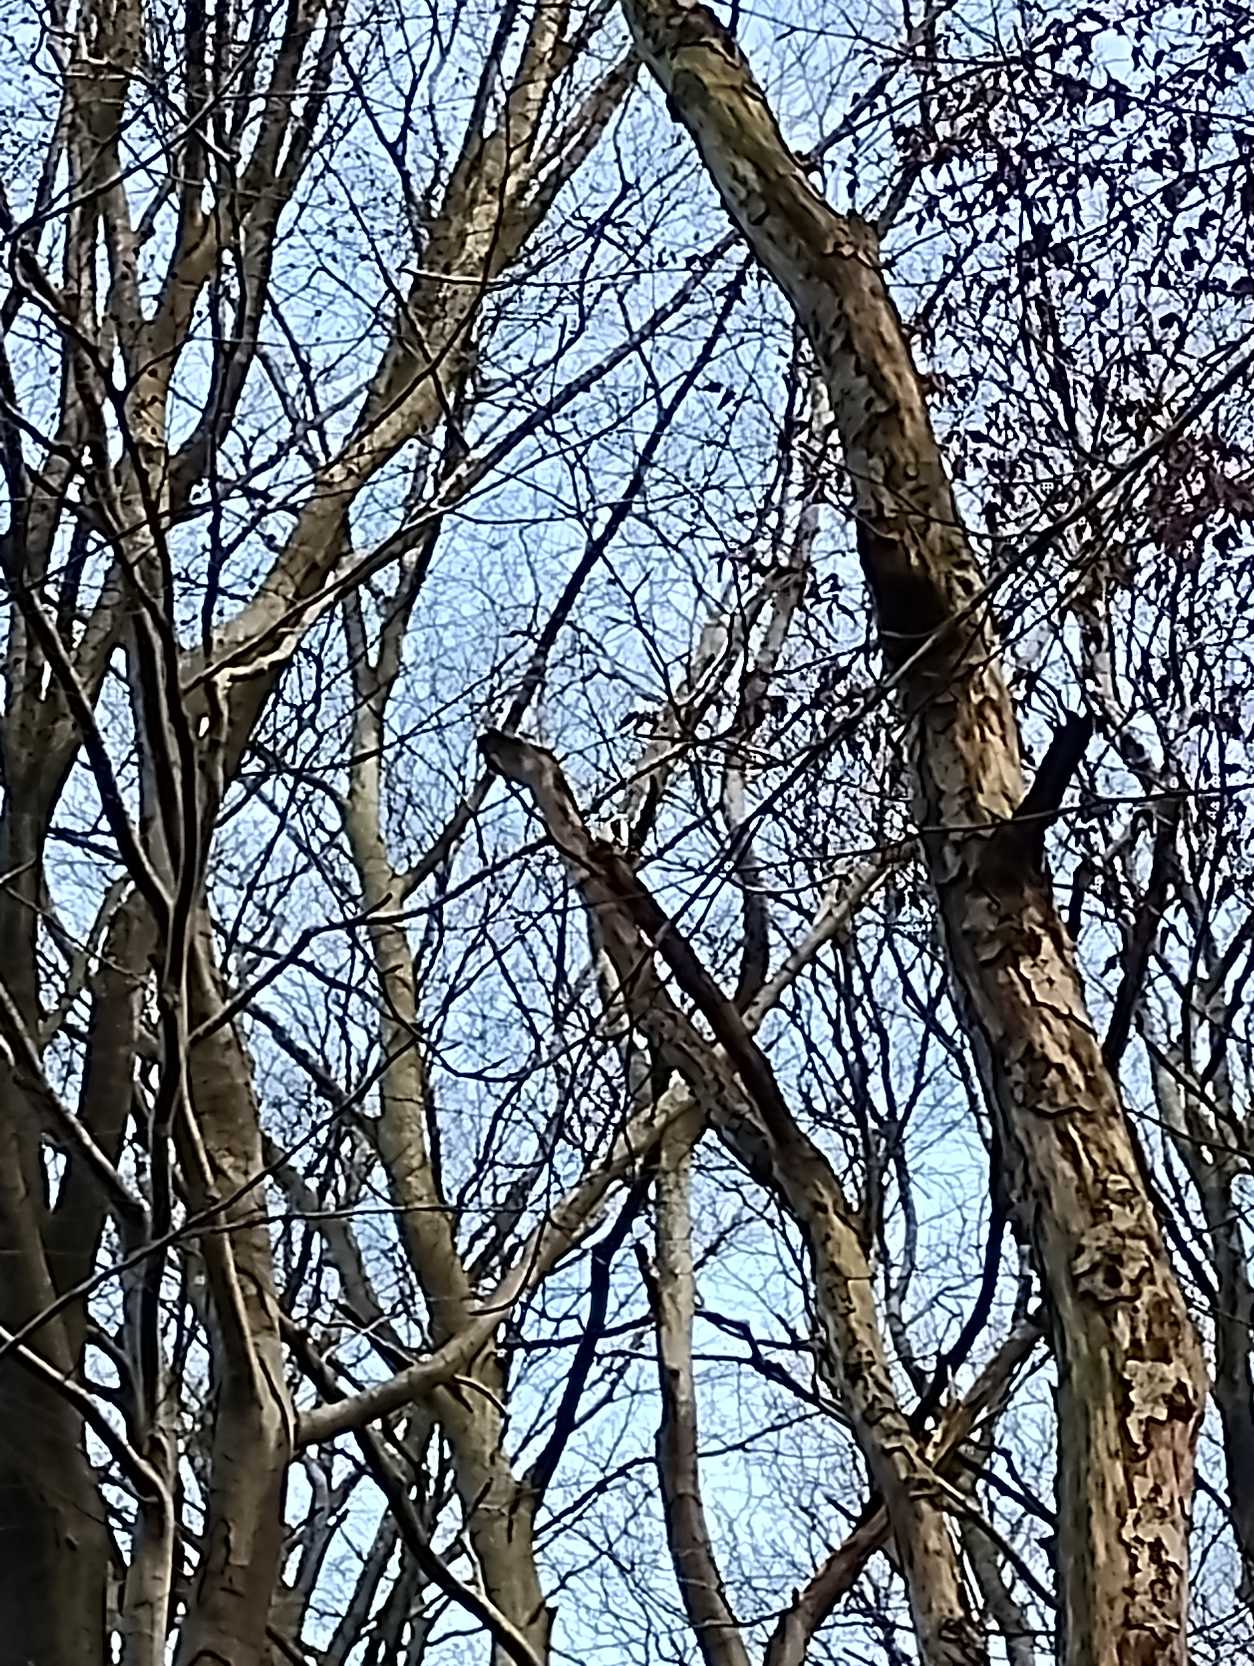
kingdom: Animalia
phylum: Chordata
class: Aves
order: Piciformes
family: Picidae
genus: Dendrocopos
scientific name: Dendrocopos major
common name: Stor flagspætte
